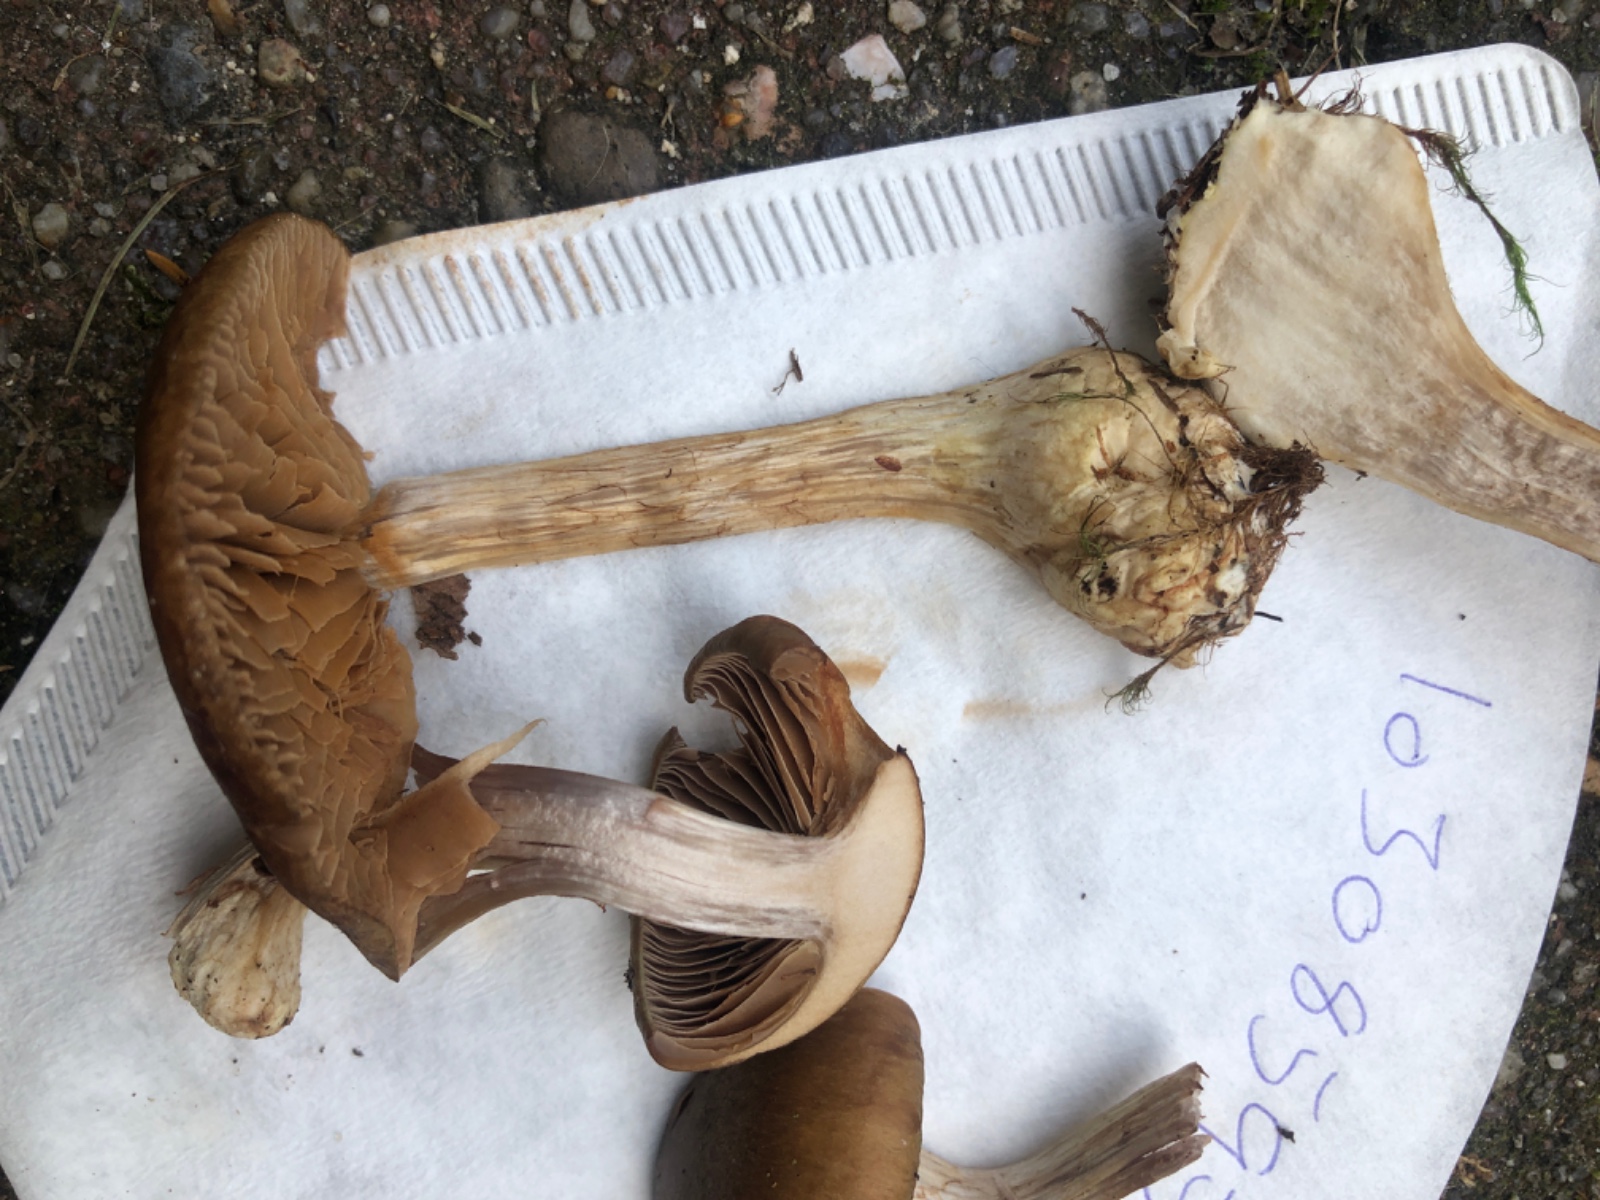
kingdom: Fungi
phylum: Basidiomycota
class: Agaricomycetes
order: Agaricales
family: Cortinariaceae
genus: Cortinarius
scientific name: Cortinarius
